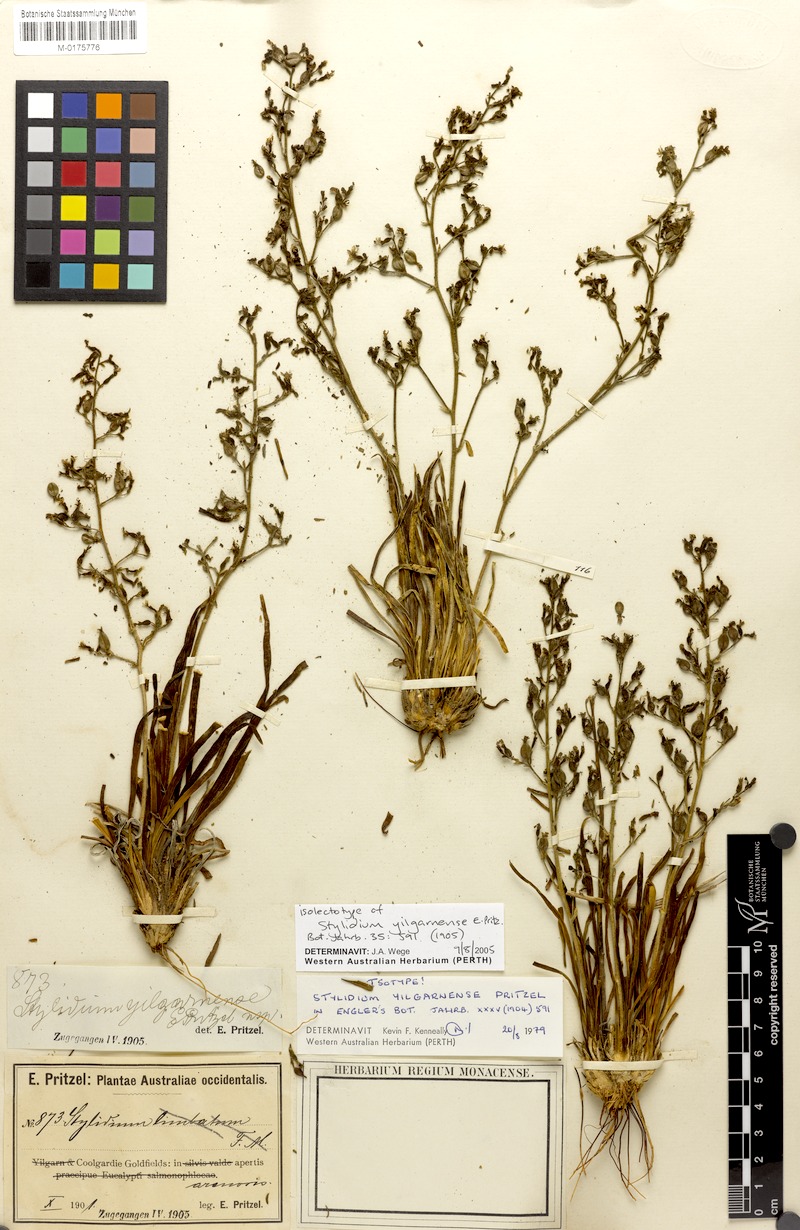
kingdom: Plantae
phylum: Tracheophyta
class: Magnoliopsida
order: Asterales
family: Stylidiaceae
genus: Stylidium
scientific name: Stylidium yilgarnense
